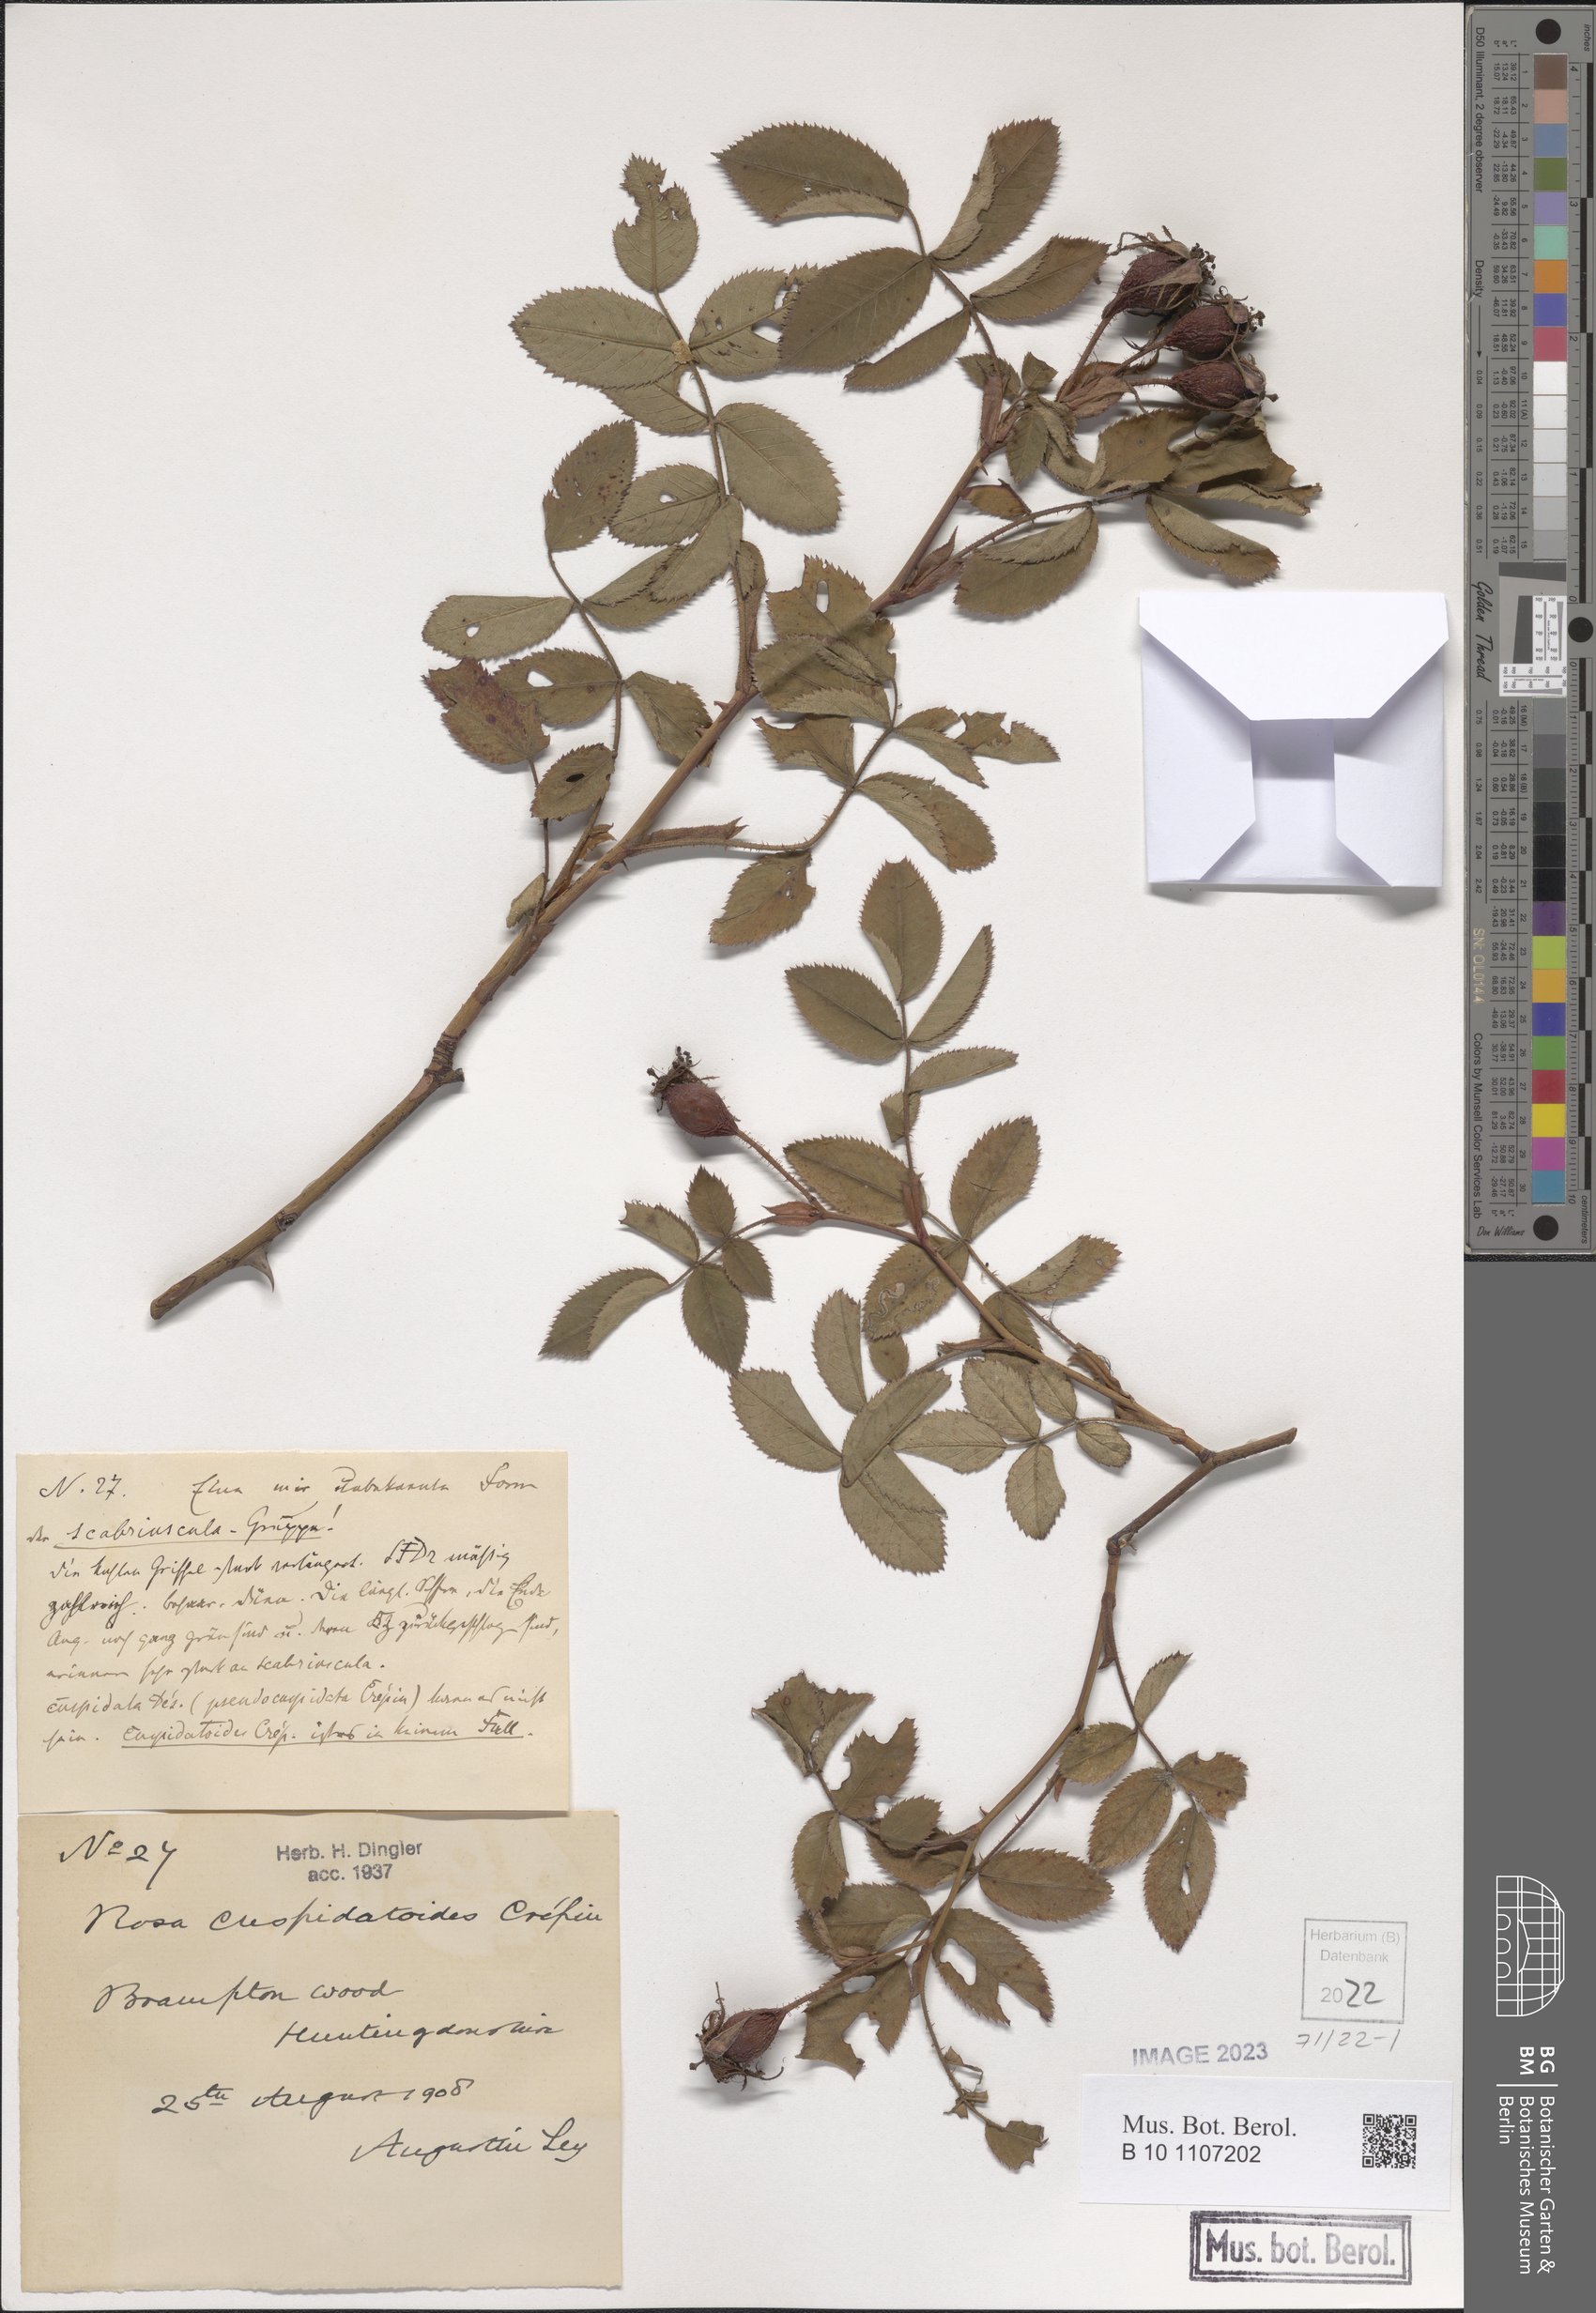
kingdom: Plantae
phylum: Tracheophyta
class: Magnoliopsida
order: Rosales
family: Rosaceae
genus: Rosa
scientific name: Rosa scabriuscula
